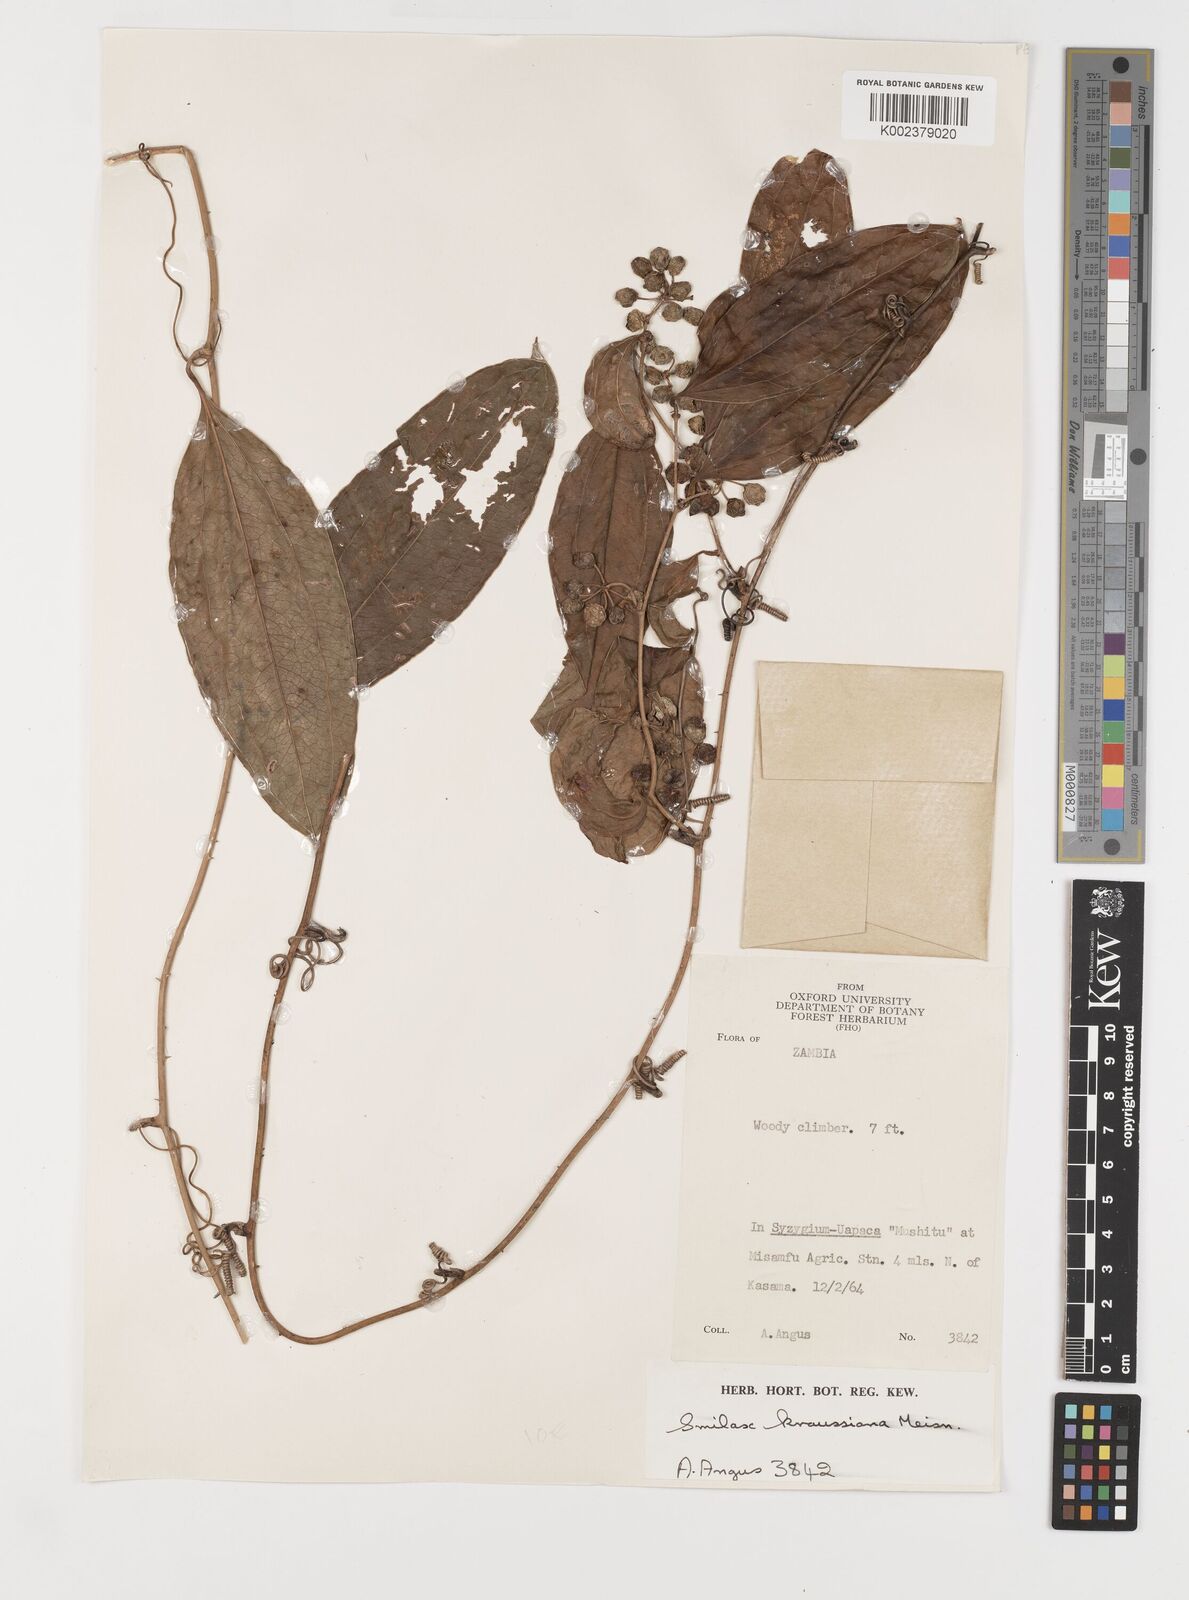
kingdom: Plantae
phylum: Tracheophyta
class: Liliopsida
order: Liliales
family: Smilacaceae
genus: Smilax
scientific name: Smilax anceps
